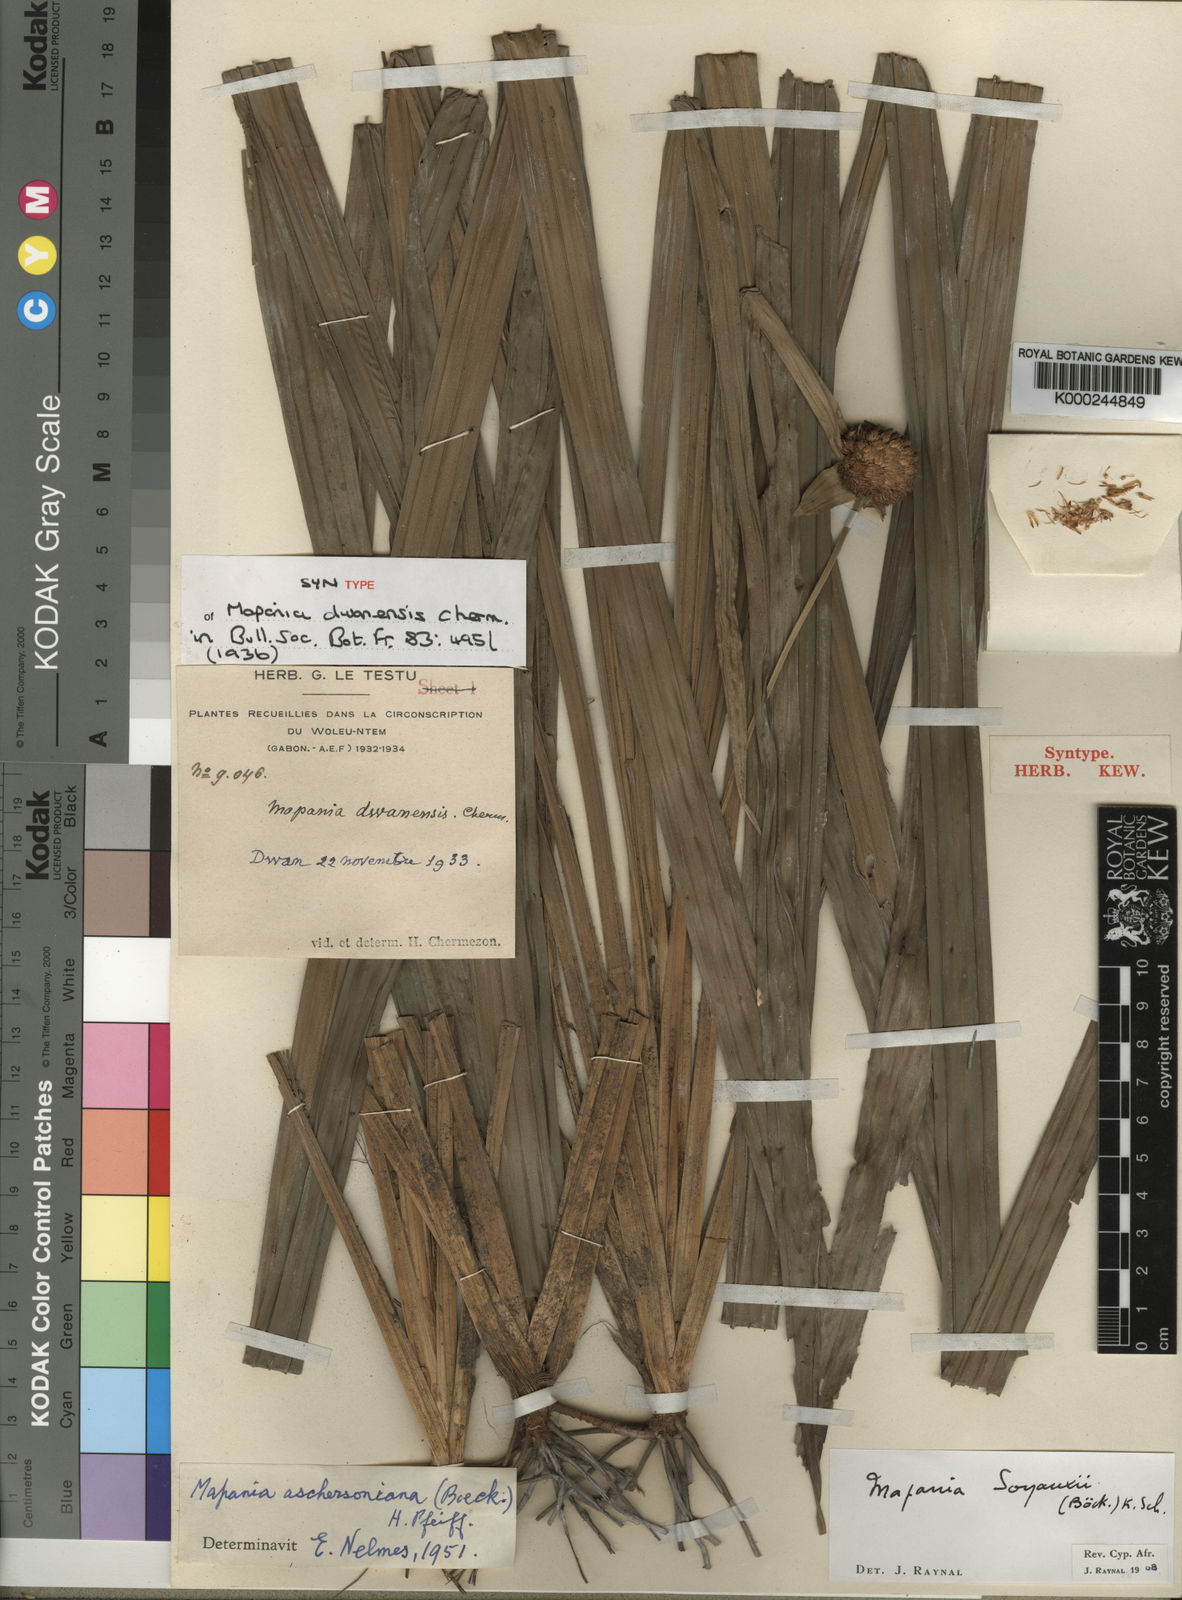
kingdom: Plantae
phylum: Tracheophyta
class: Liliopsida
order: Poales
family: Cyperaceae
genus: Mapania
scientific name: Mapania soyauxii
